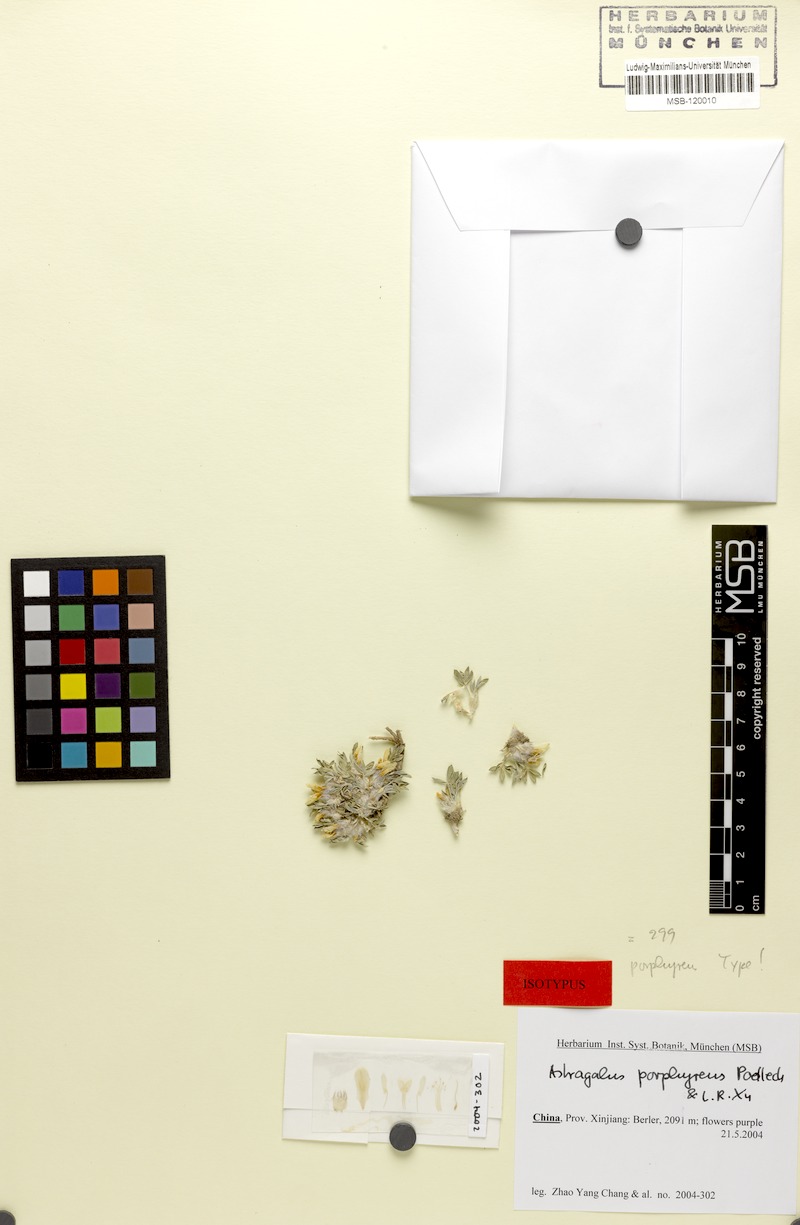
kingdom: Plantae
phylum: Tracheophyta
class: Magnoliopsida
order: Fabales
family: Fabaceae
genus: Astragalus
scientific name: Astragalus porphyreus
